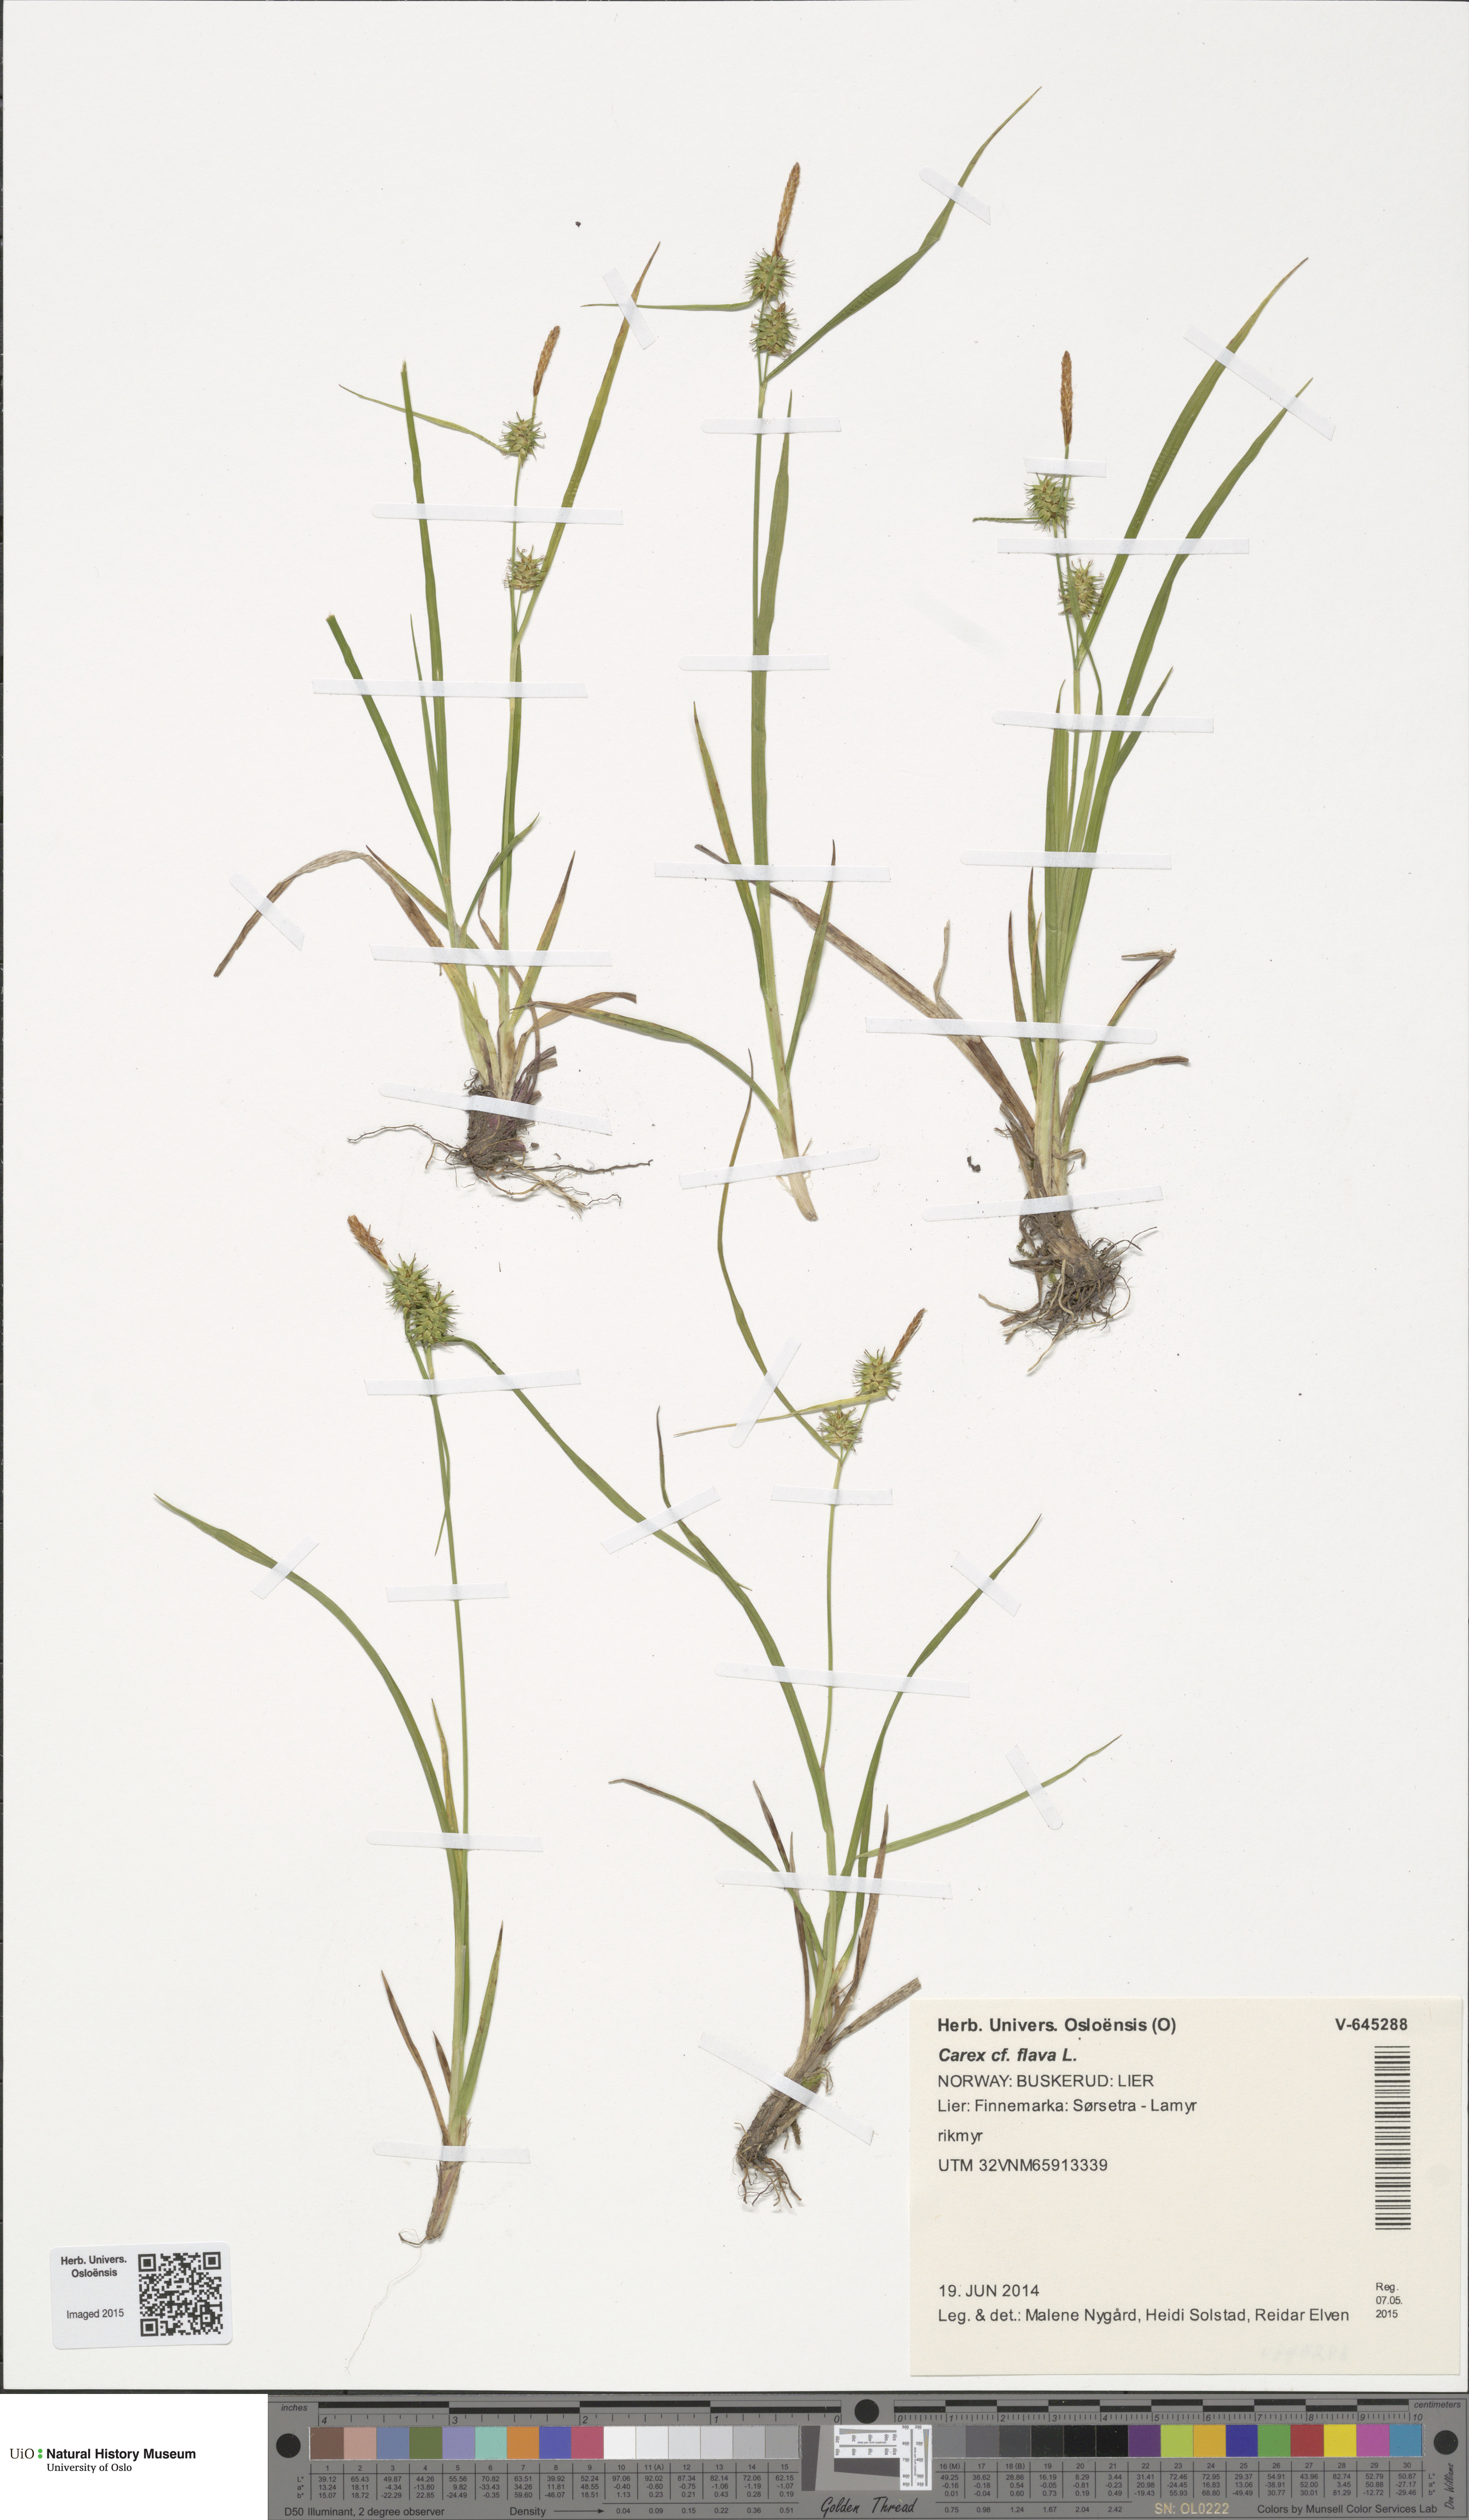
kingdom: Plantae
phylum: Tracheophyta
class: Liliopsida
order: Poales
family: Cyperaceae
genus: Carex
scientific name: Carex flava
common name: Large yellow-sedge
